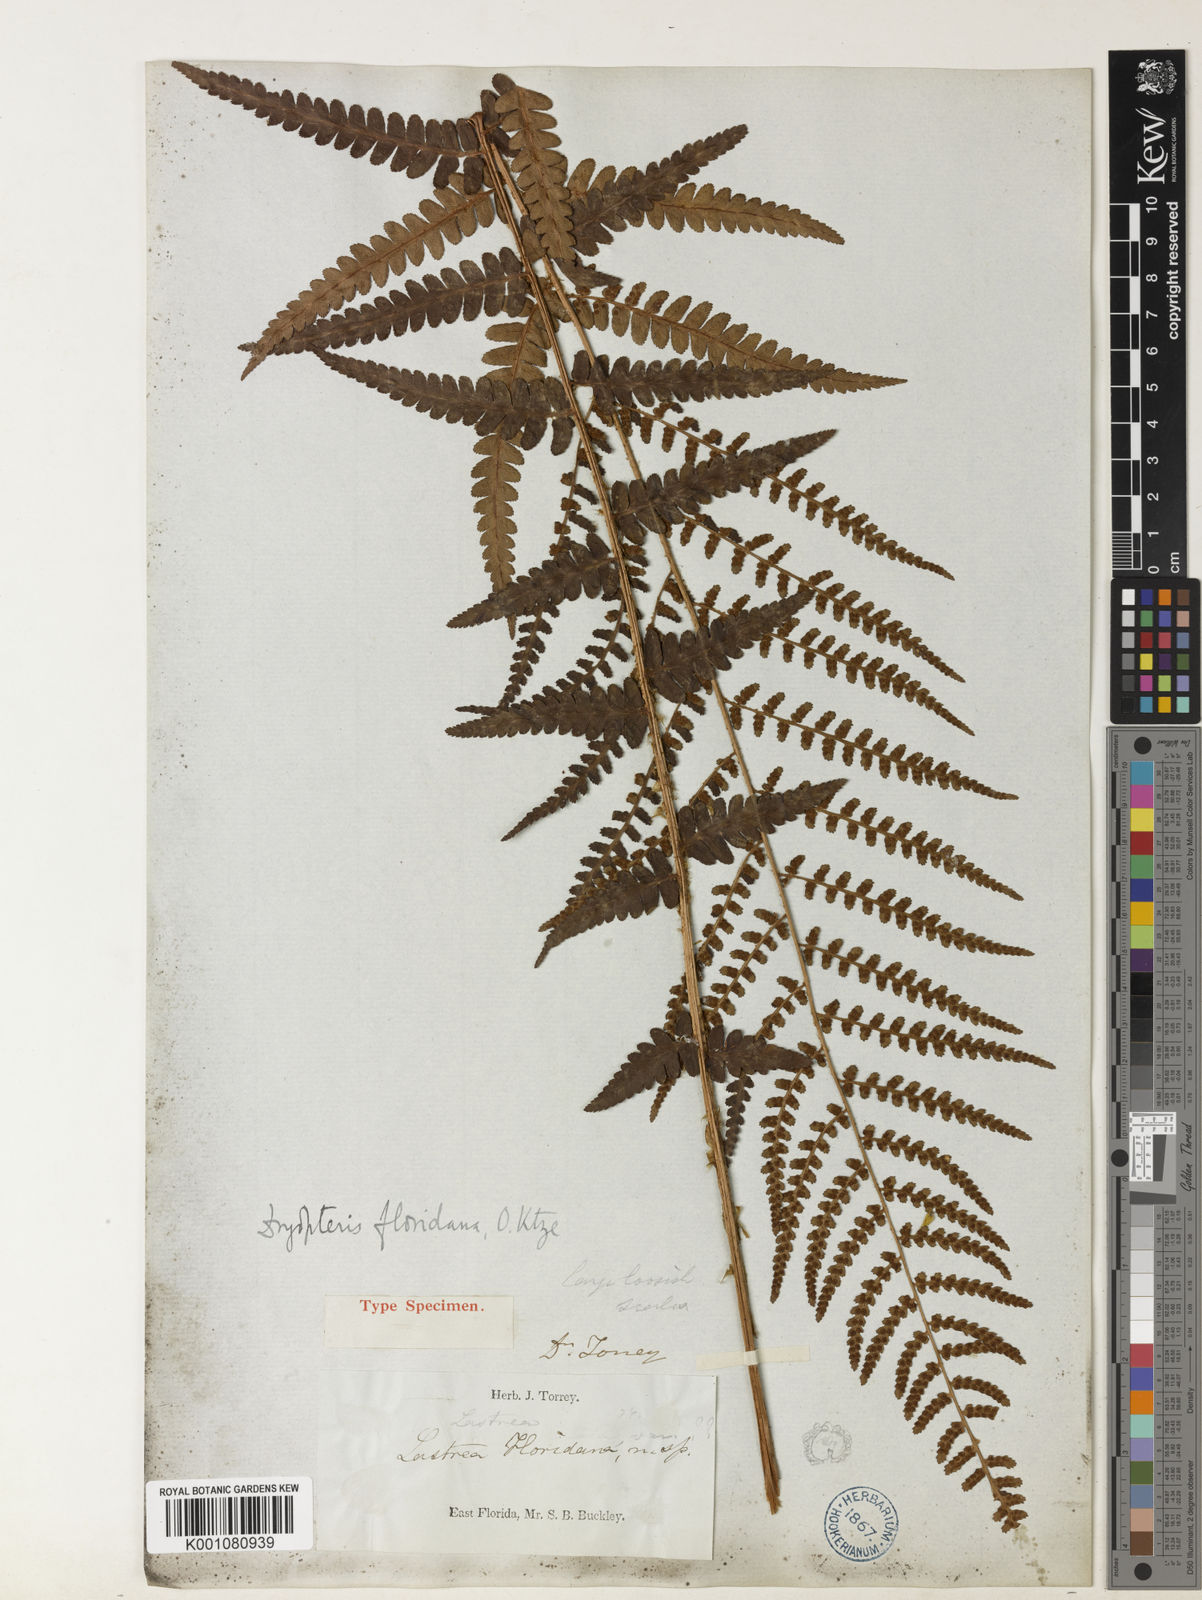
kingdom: Plantae
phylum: Tracheophyta
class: Polypodiopsida
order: Polypodiales
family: Dryopteridaceae
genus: Dryopteris
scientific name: Dryopteris ludoviciana
